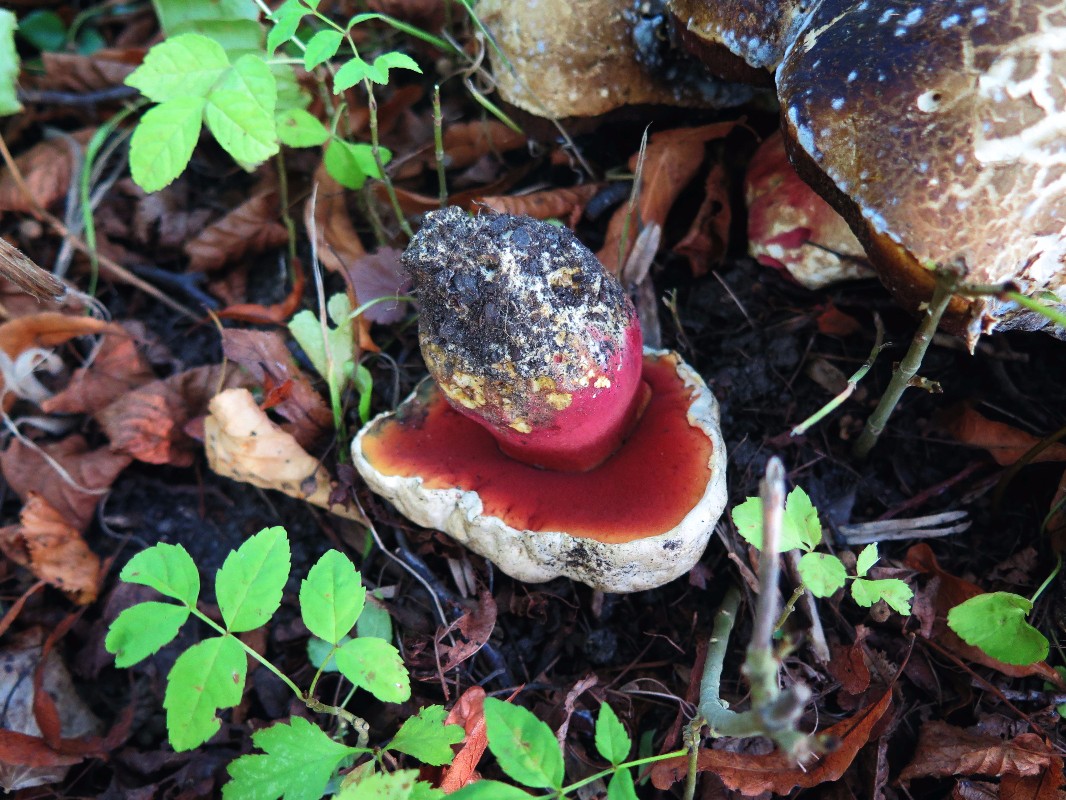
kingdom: Fungi
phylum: Basidiomycota
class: Agaricomycetes
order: Boletales
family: Boletaceae
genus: Rubroboletus
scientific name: Rubroboletus satanas
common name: Satans rørhat
